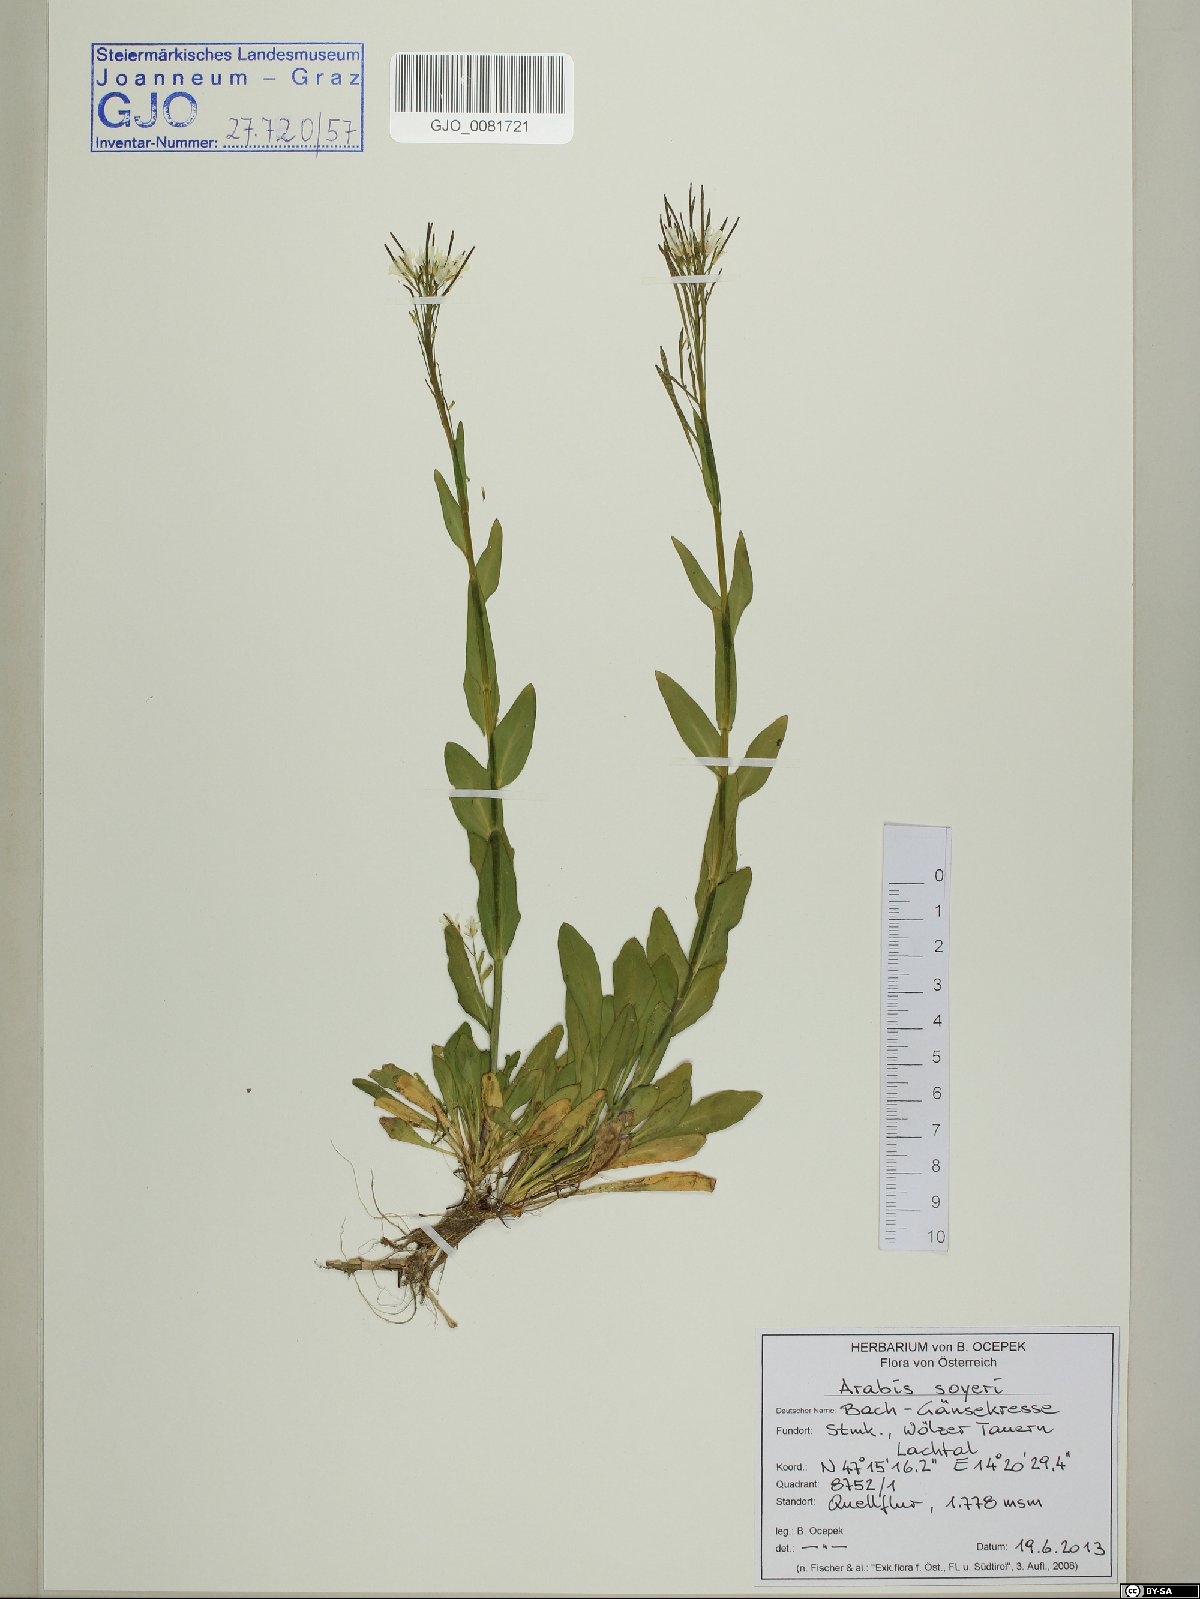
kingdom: Plantae
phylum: Tracheophyta
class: Magnoliopsida
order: Brassicales
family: Brassicaceae
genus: Arabis
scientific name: Arabis soyeri
